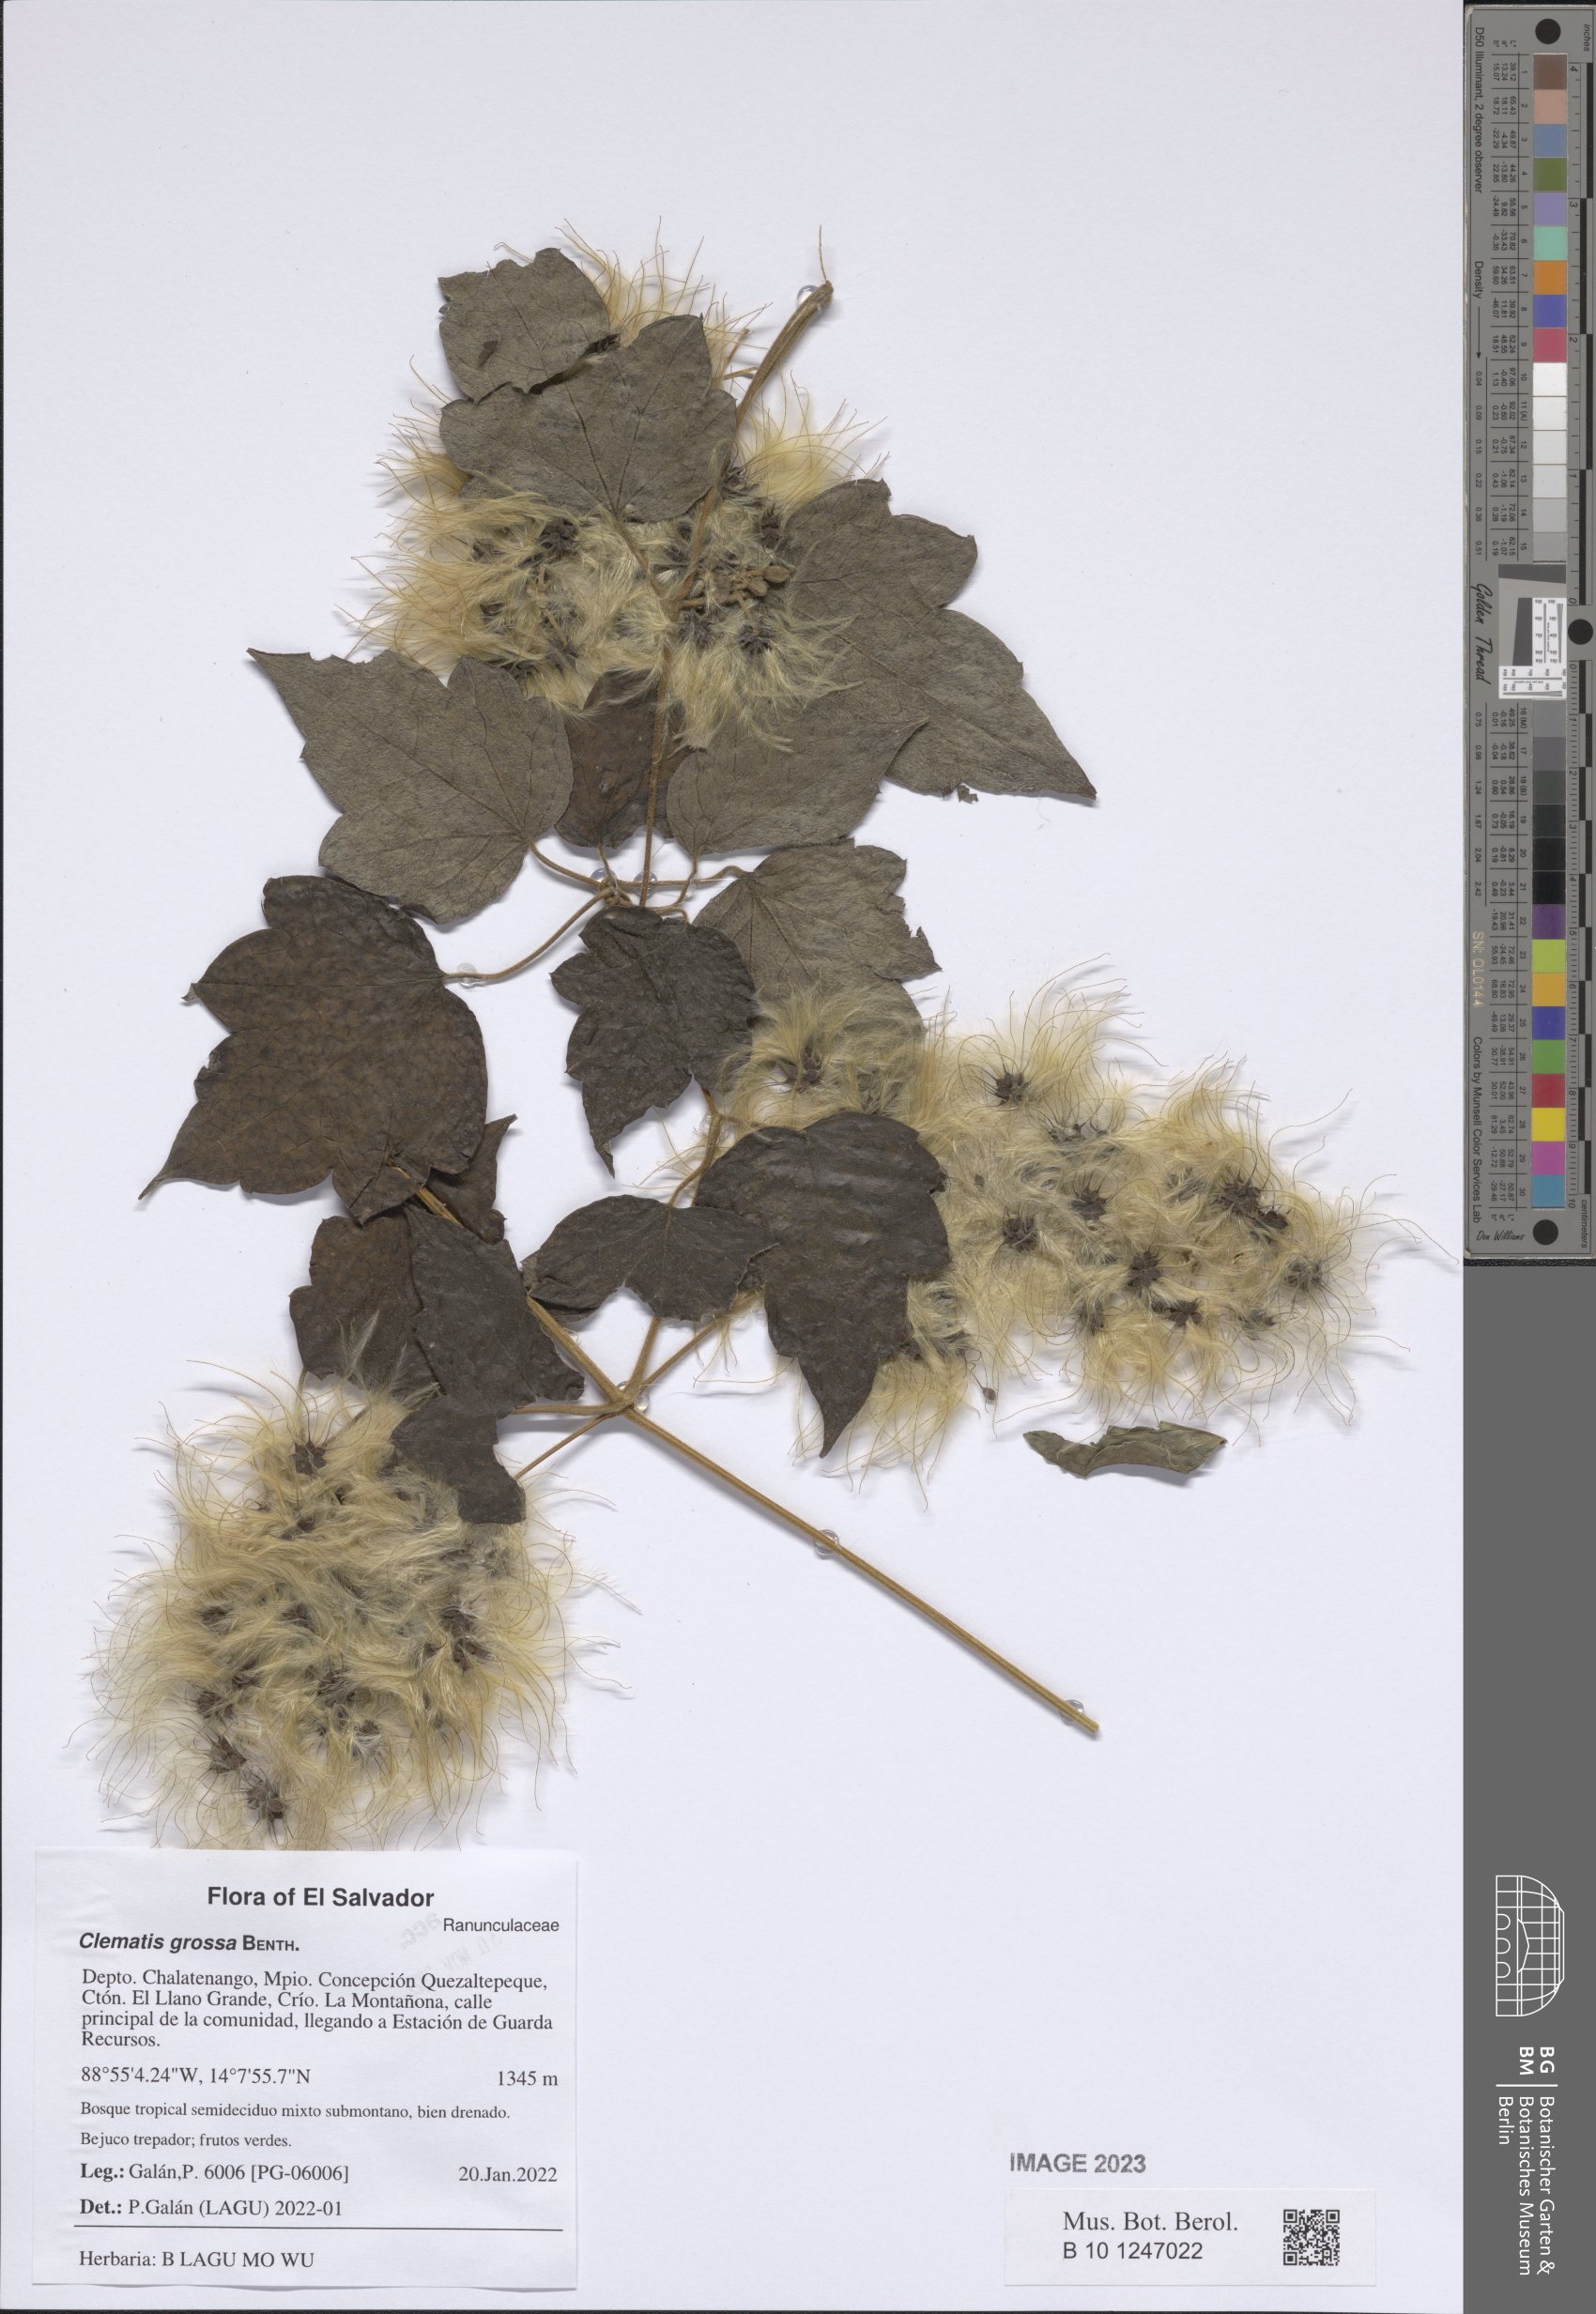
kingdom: Plantae
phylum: Tracheophyta
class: Magnoliopsida
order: Ranunculales
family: Ranunculaceae
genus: Clematis
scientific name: Clematis grossa
